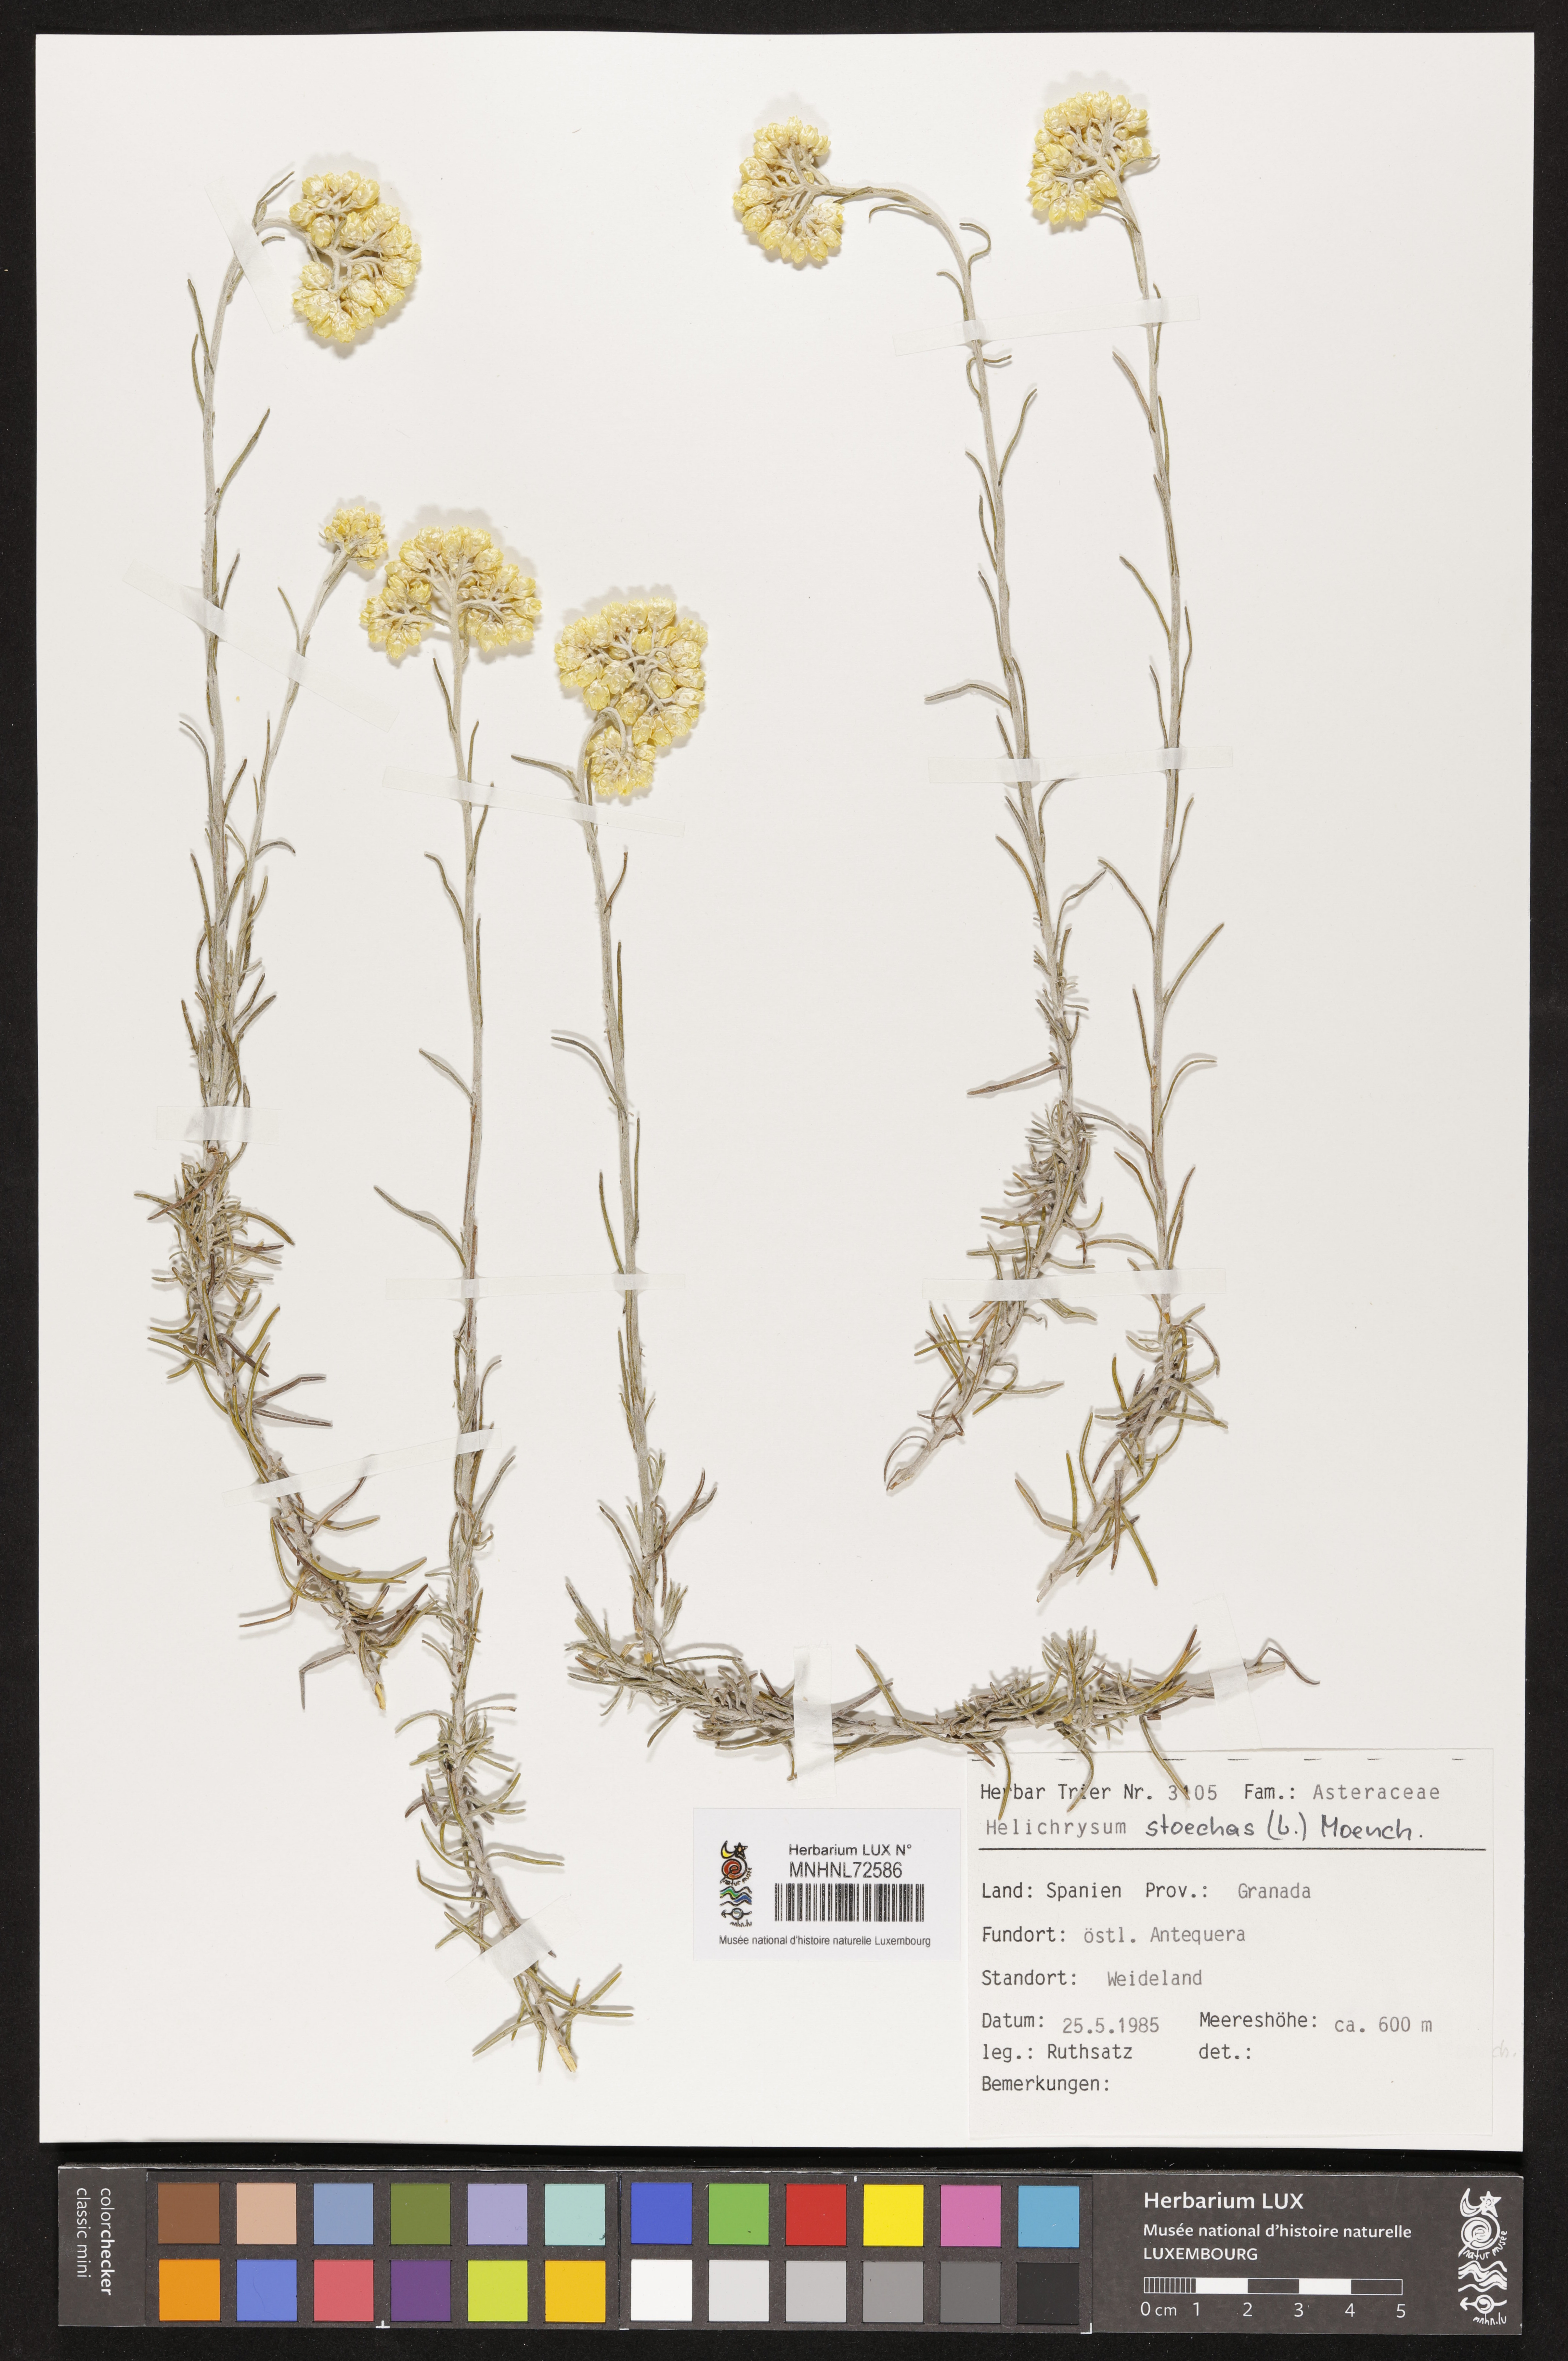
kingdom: Plantae
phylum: Tracheophyta
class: Magnoliopsida
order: Asterales
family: Asteraceae
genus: Helichrysum
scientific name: Helichrysum stoechas
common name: Goldilocks
